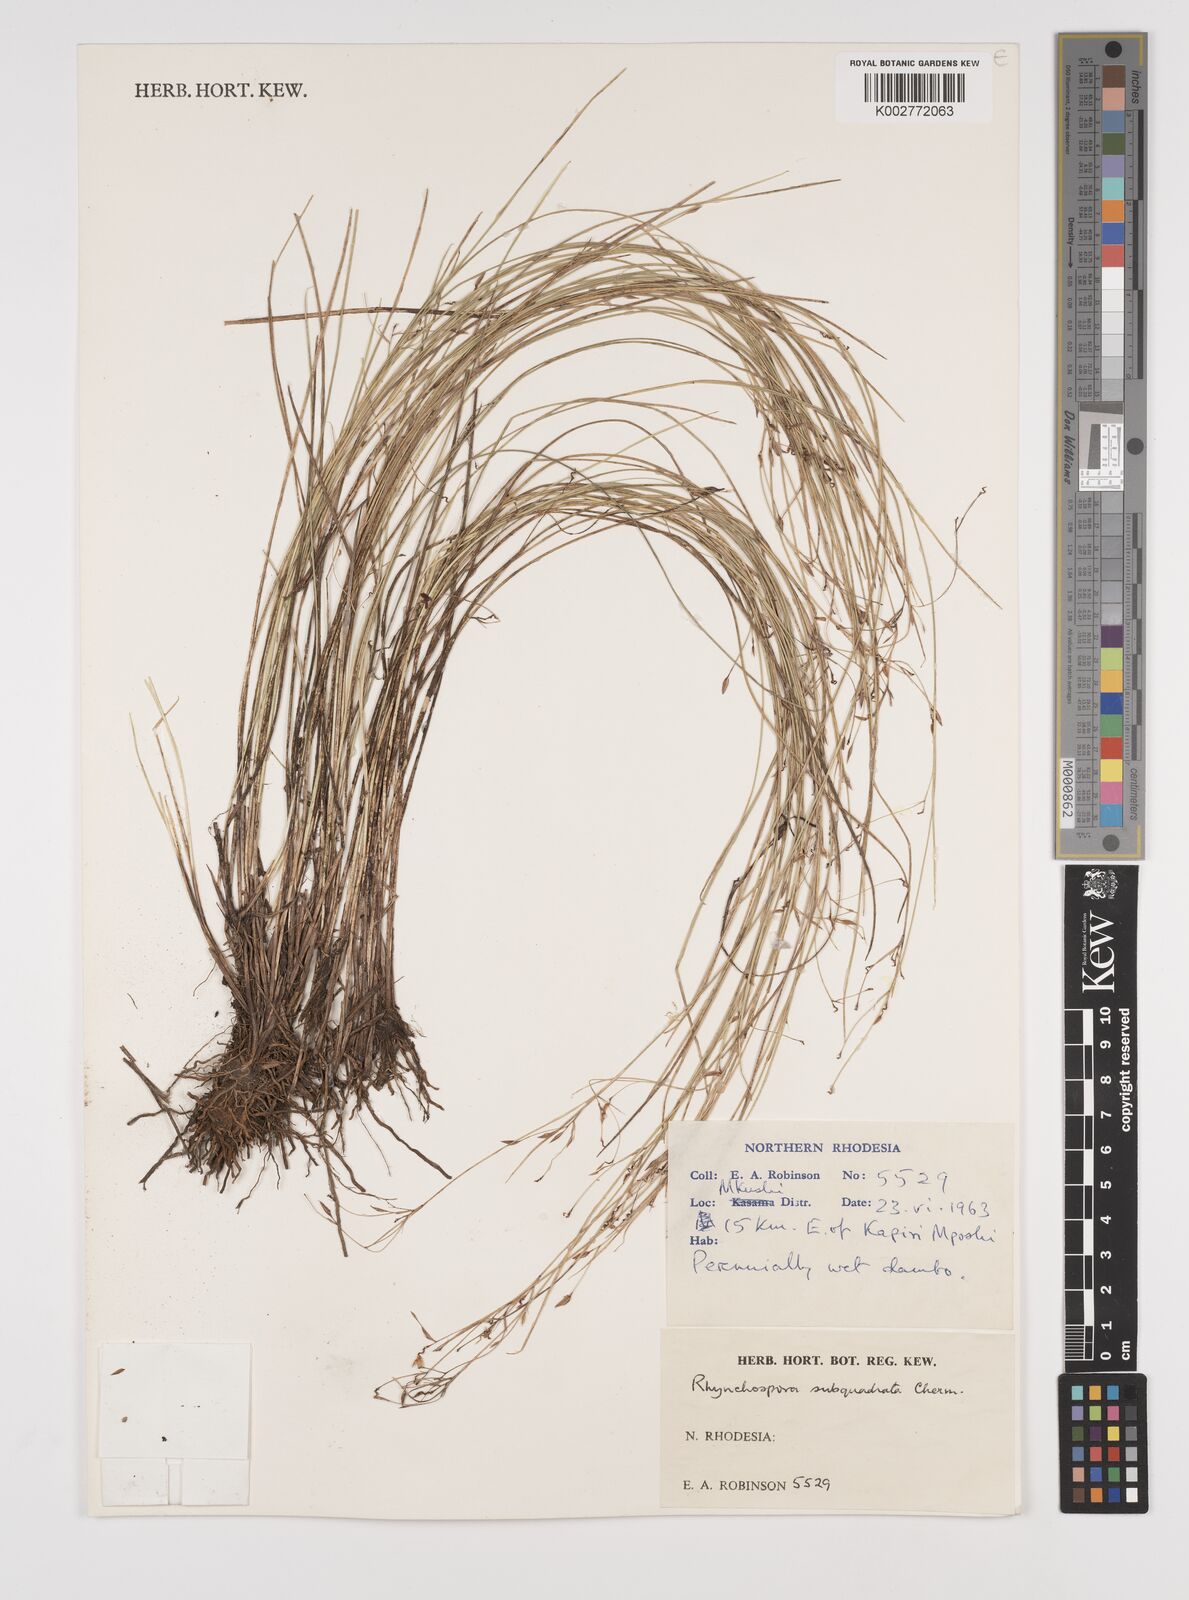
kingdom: Plantae
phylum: Tracheophyta
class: Liliopsida
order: Poales
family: Cyperaceae
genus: Rhynchospora
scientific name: Rhynchospora gracillima
